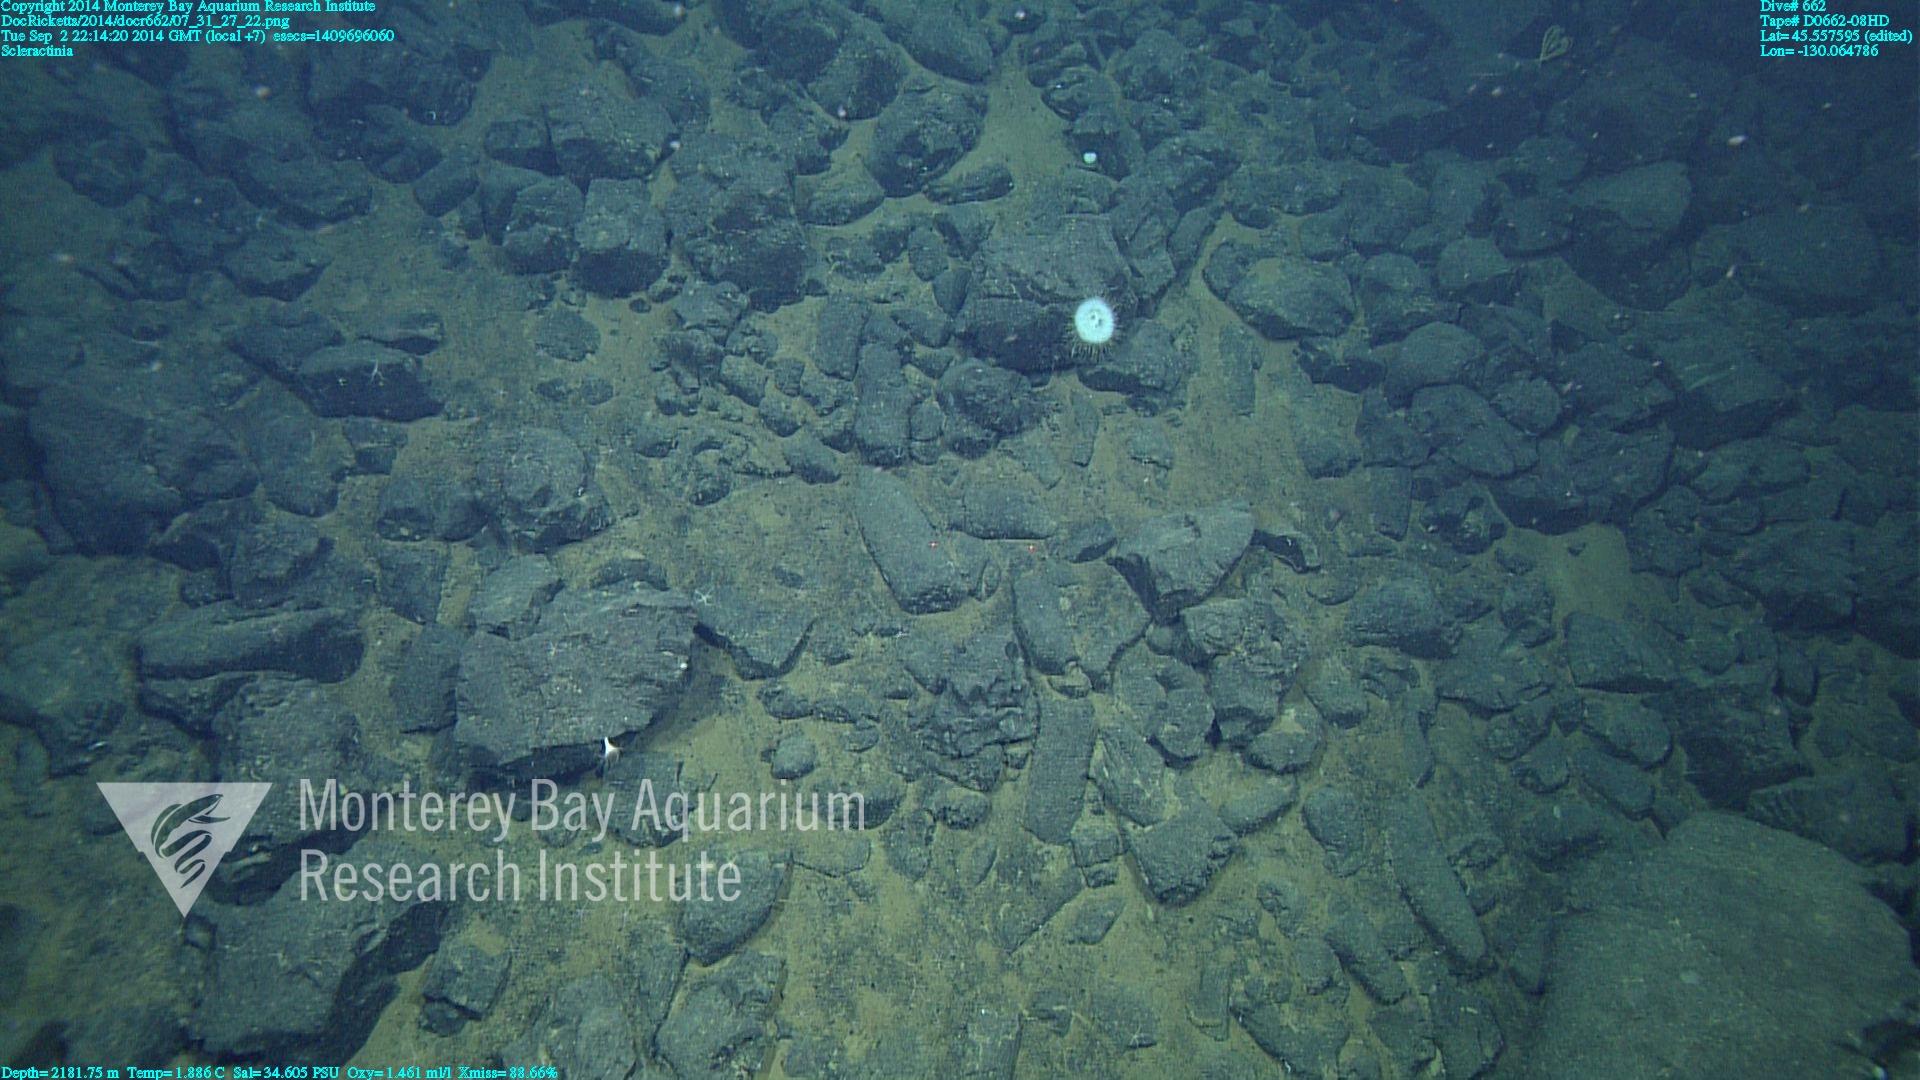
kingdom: Animalia
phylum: Cnidaria
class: Anthozoa
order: Scleractinia
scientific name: Scleractinia
